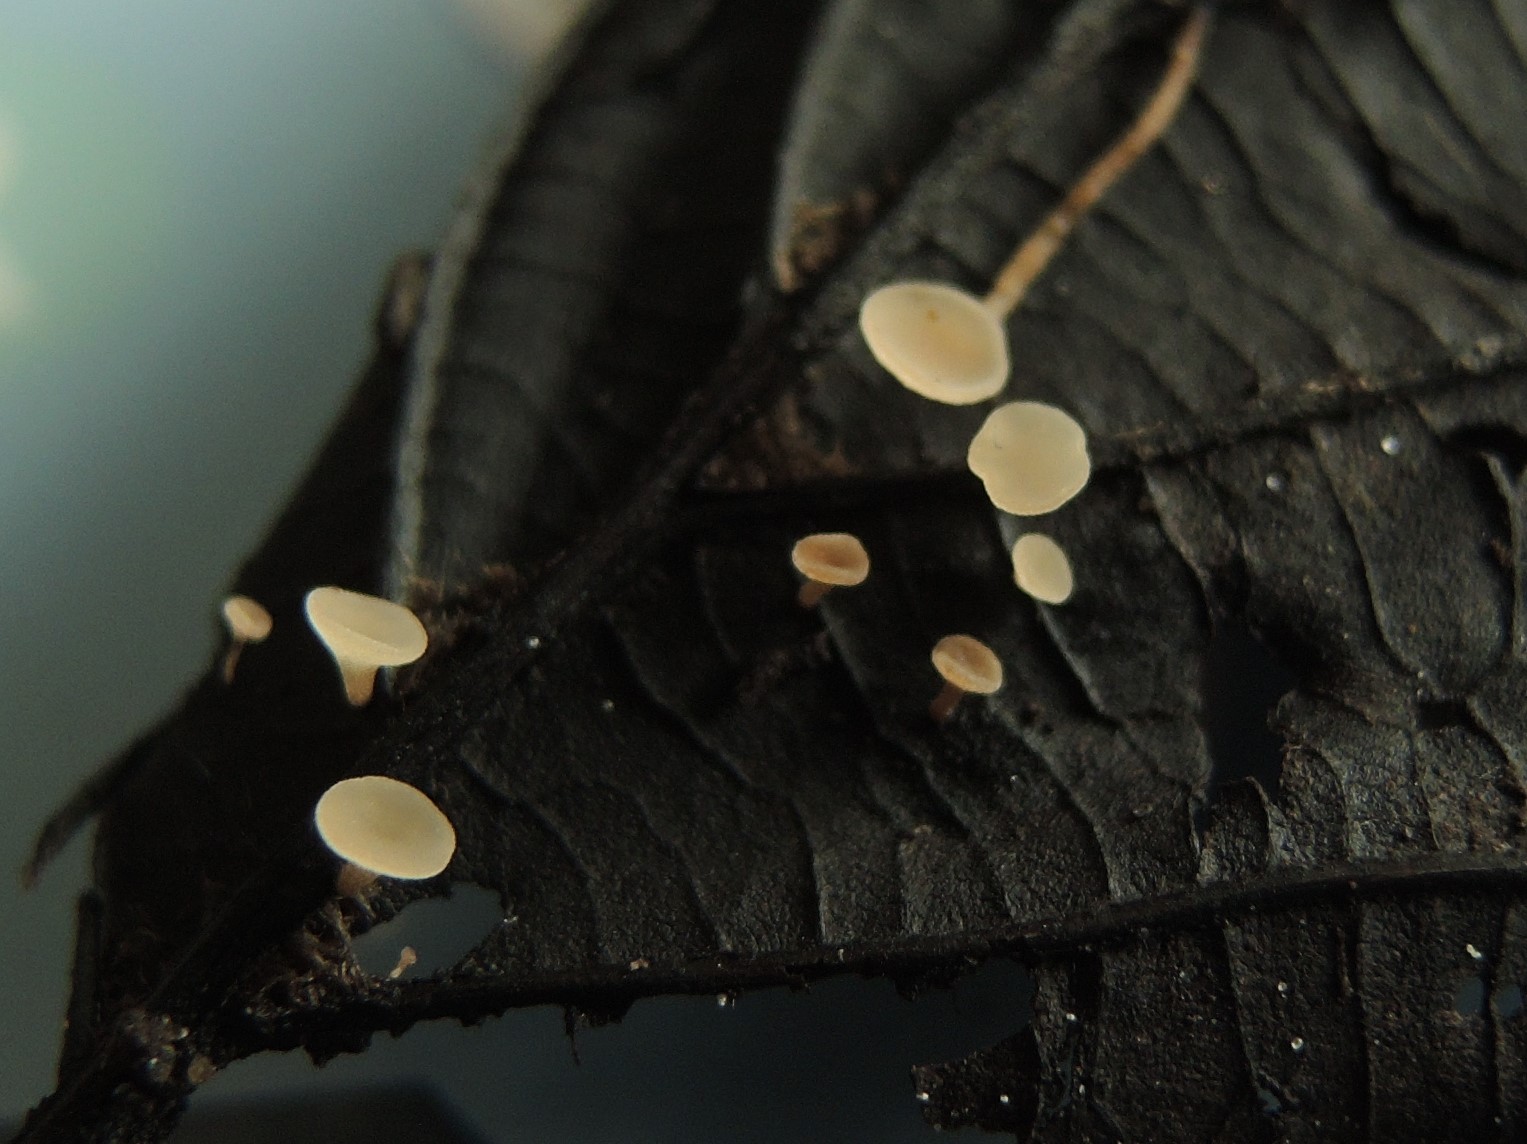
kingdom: Fungi
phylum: Ascomycota
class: Leotiomycetes
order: Helotiales
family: Rutstroemiaceae
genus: Rutstroemia
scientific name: Rutstroemia conformata
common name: elleblads-brunskive
